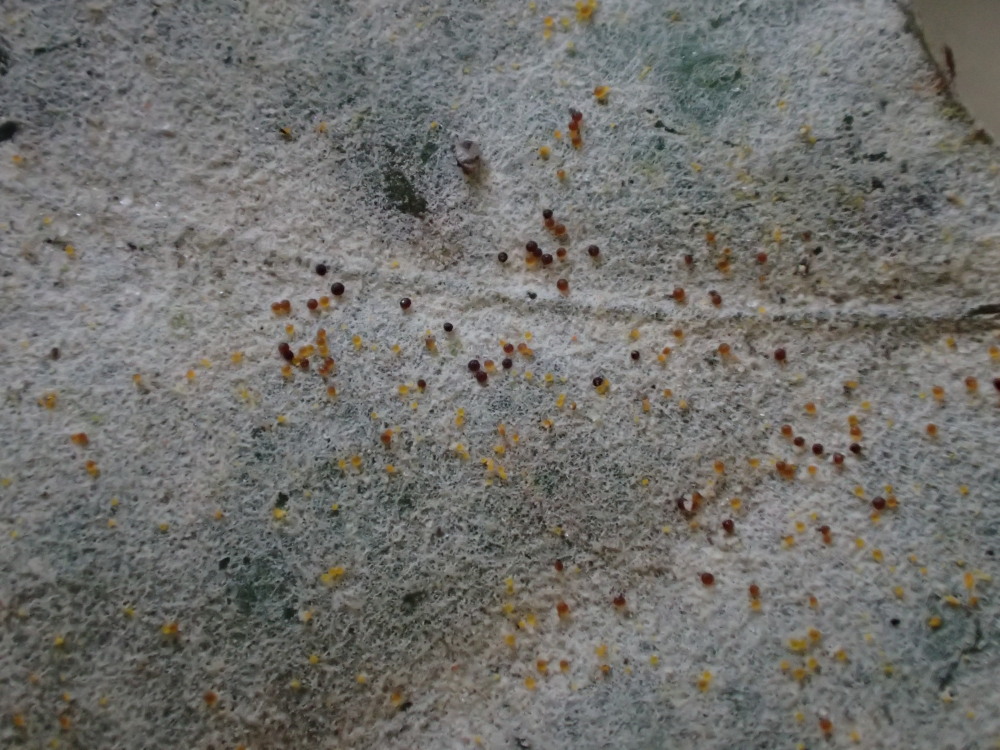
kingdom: Fungi
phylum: Ascomycota
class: Leotiomycetes
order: Helotiales
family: Erysiphaceae
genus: Erysiphe
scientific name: Erysiphe alphitoides
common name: ege-meldug
